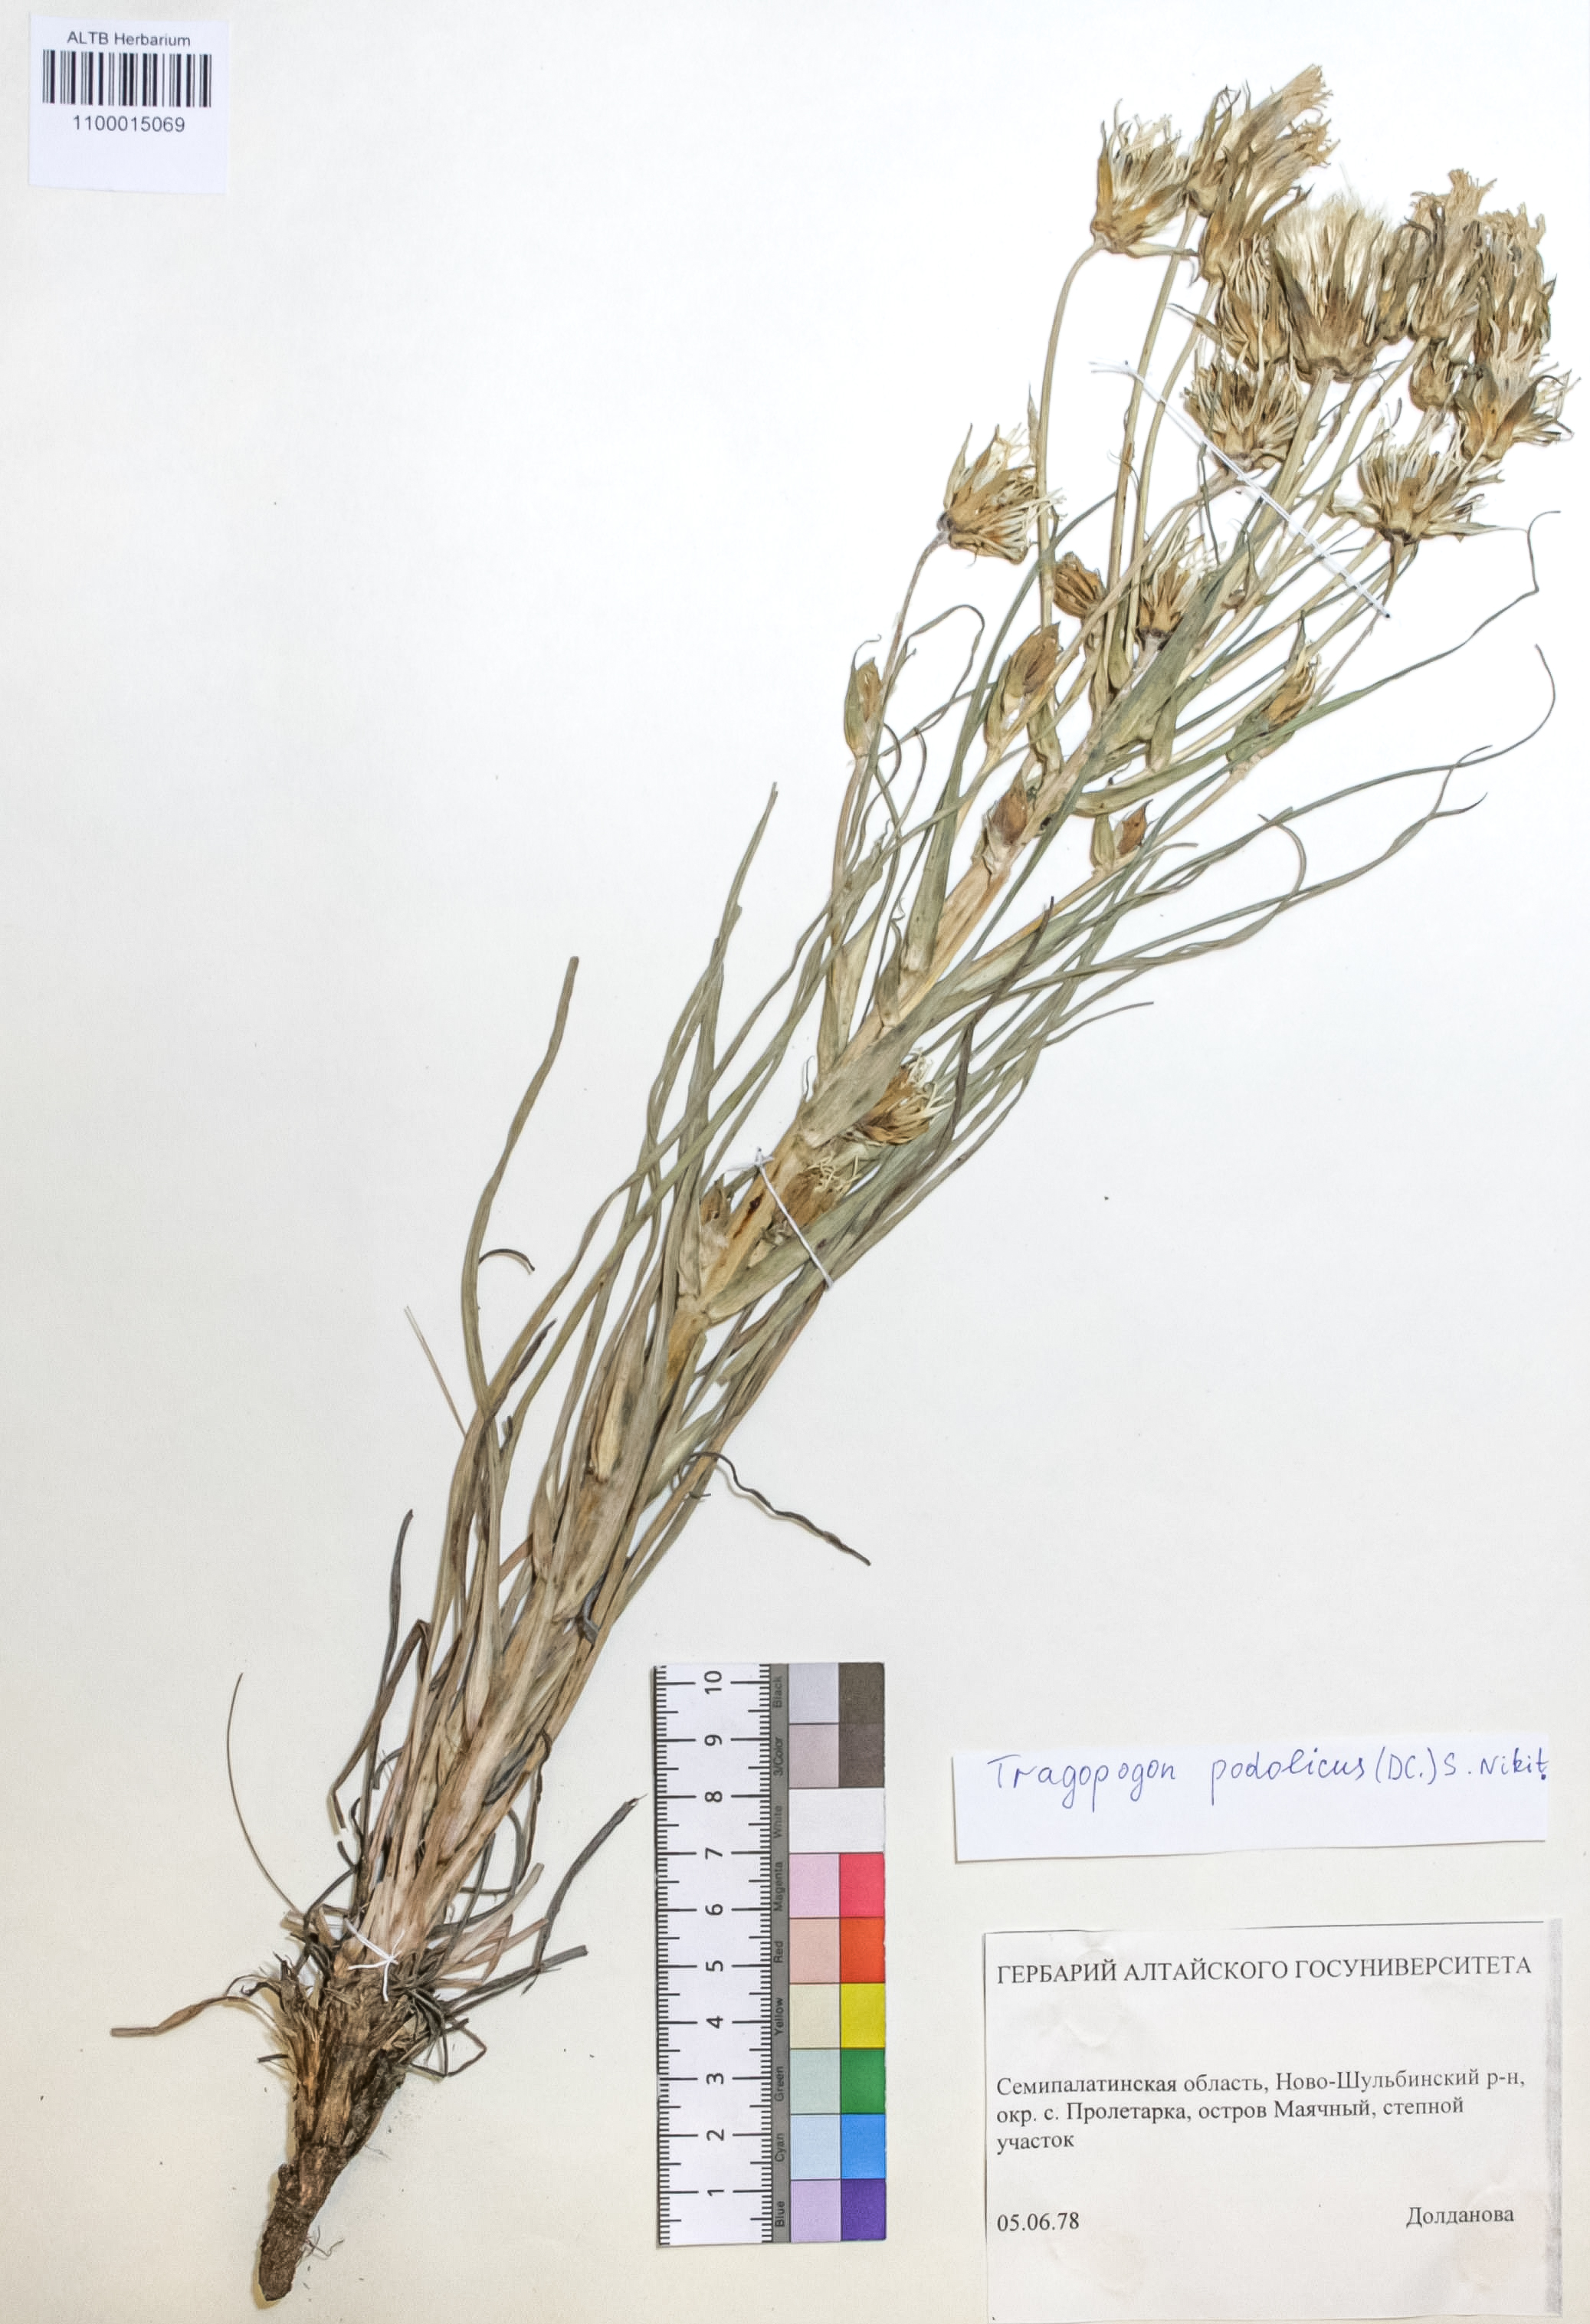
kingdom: Plantae
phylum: Tracheophyta
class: Magnoliopsida
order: Asterales
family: Asteraceae
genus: Tragopogon
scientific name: Tragopogon podolicus
